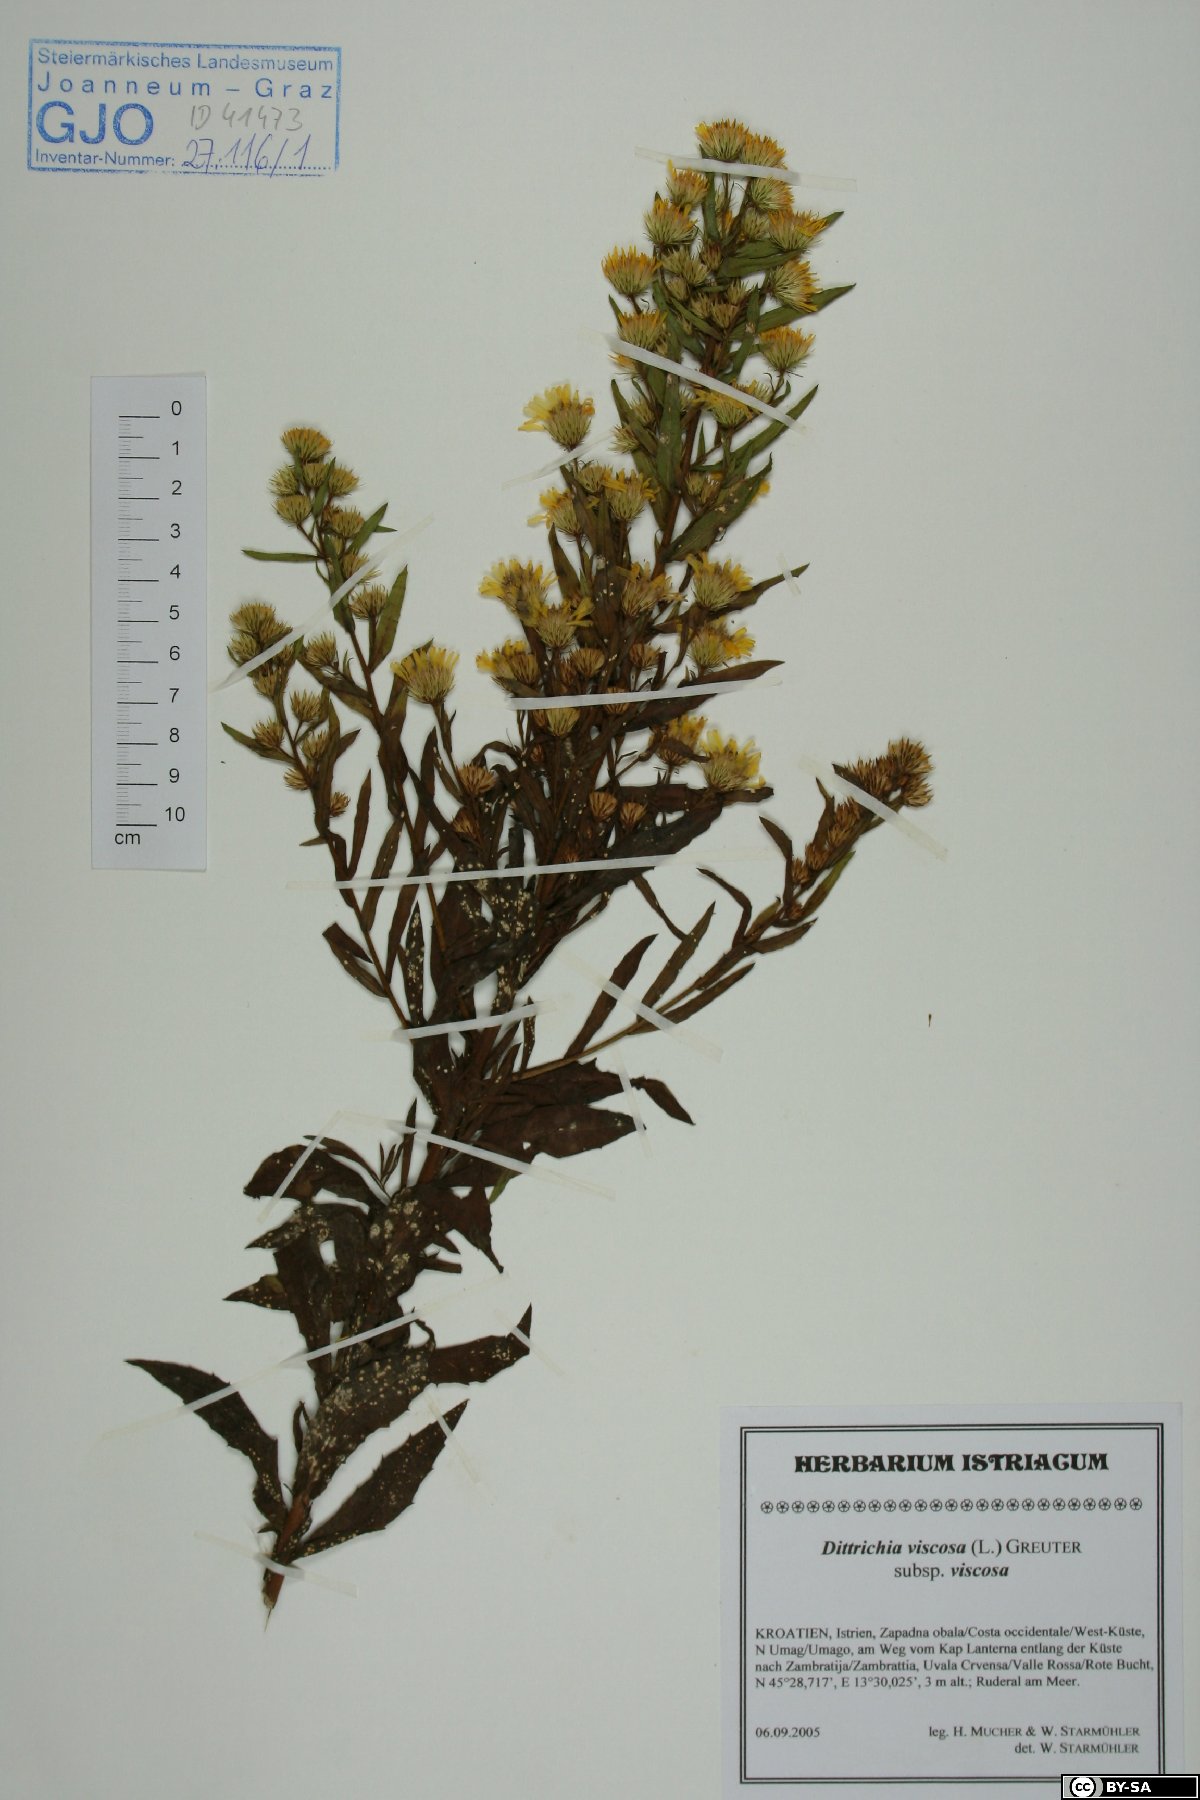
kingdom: Plantae
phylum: Tracheophyta
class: Magnoliopsida
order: Asterales
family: Asteraceae
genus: Dittrichia
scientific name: Dittrichia viscosa
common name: Woody fleabane
